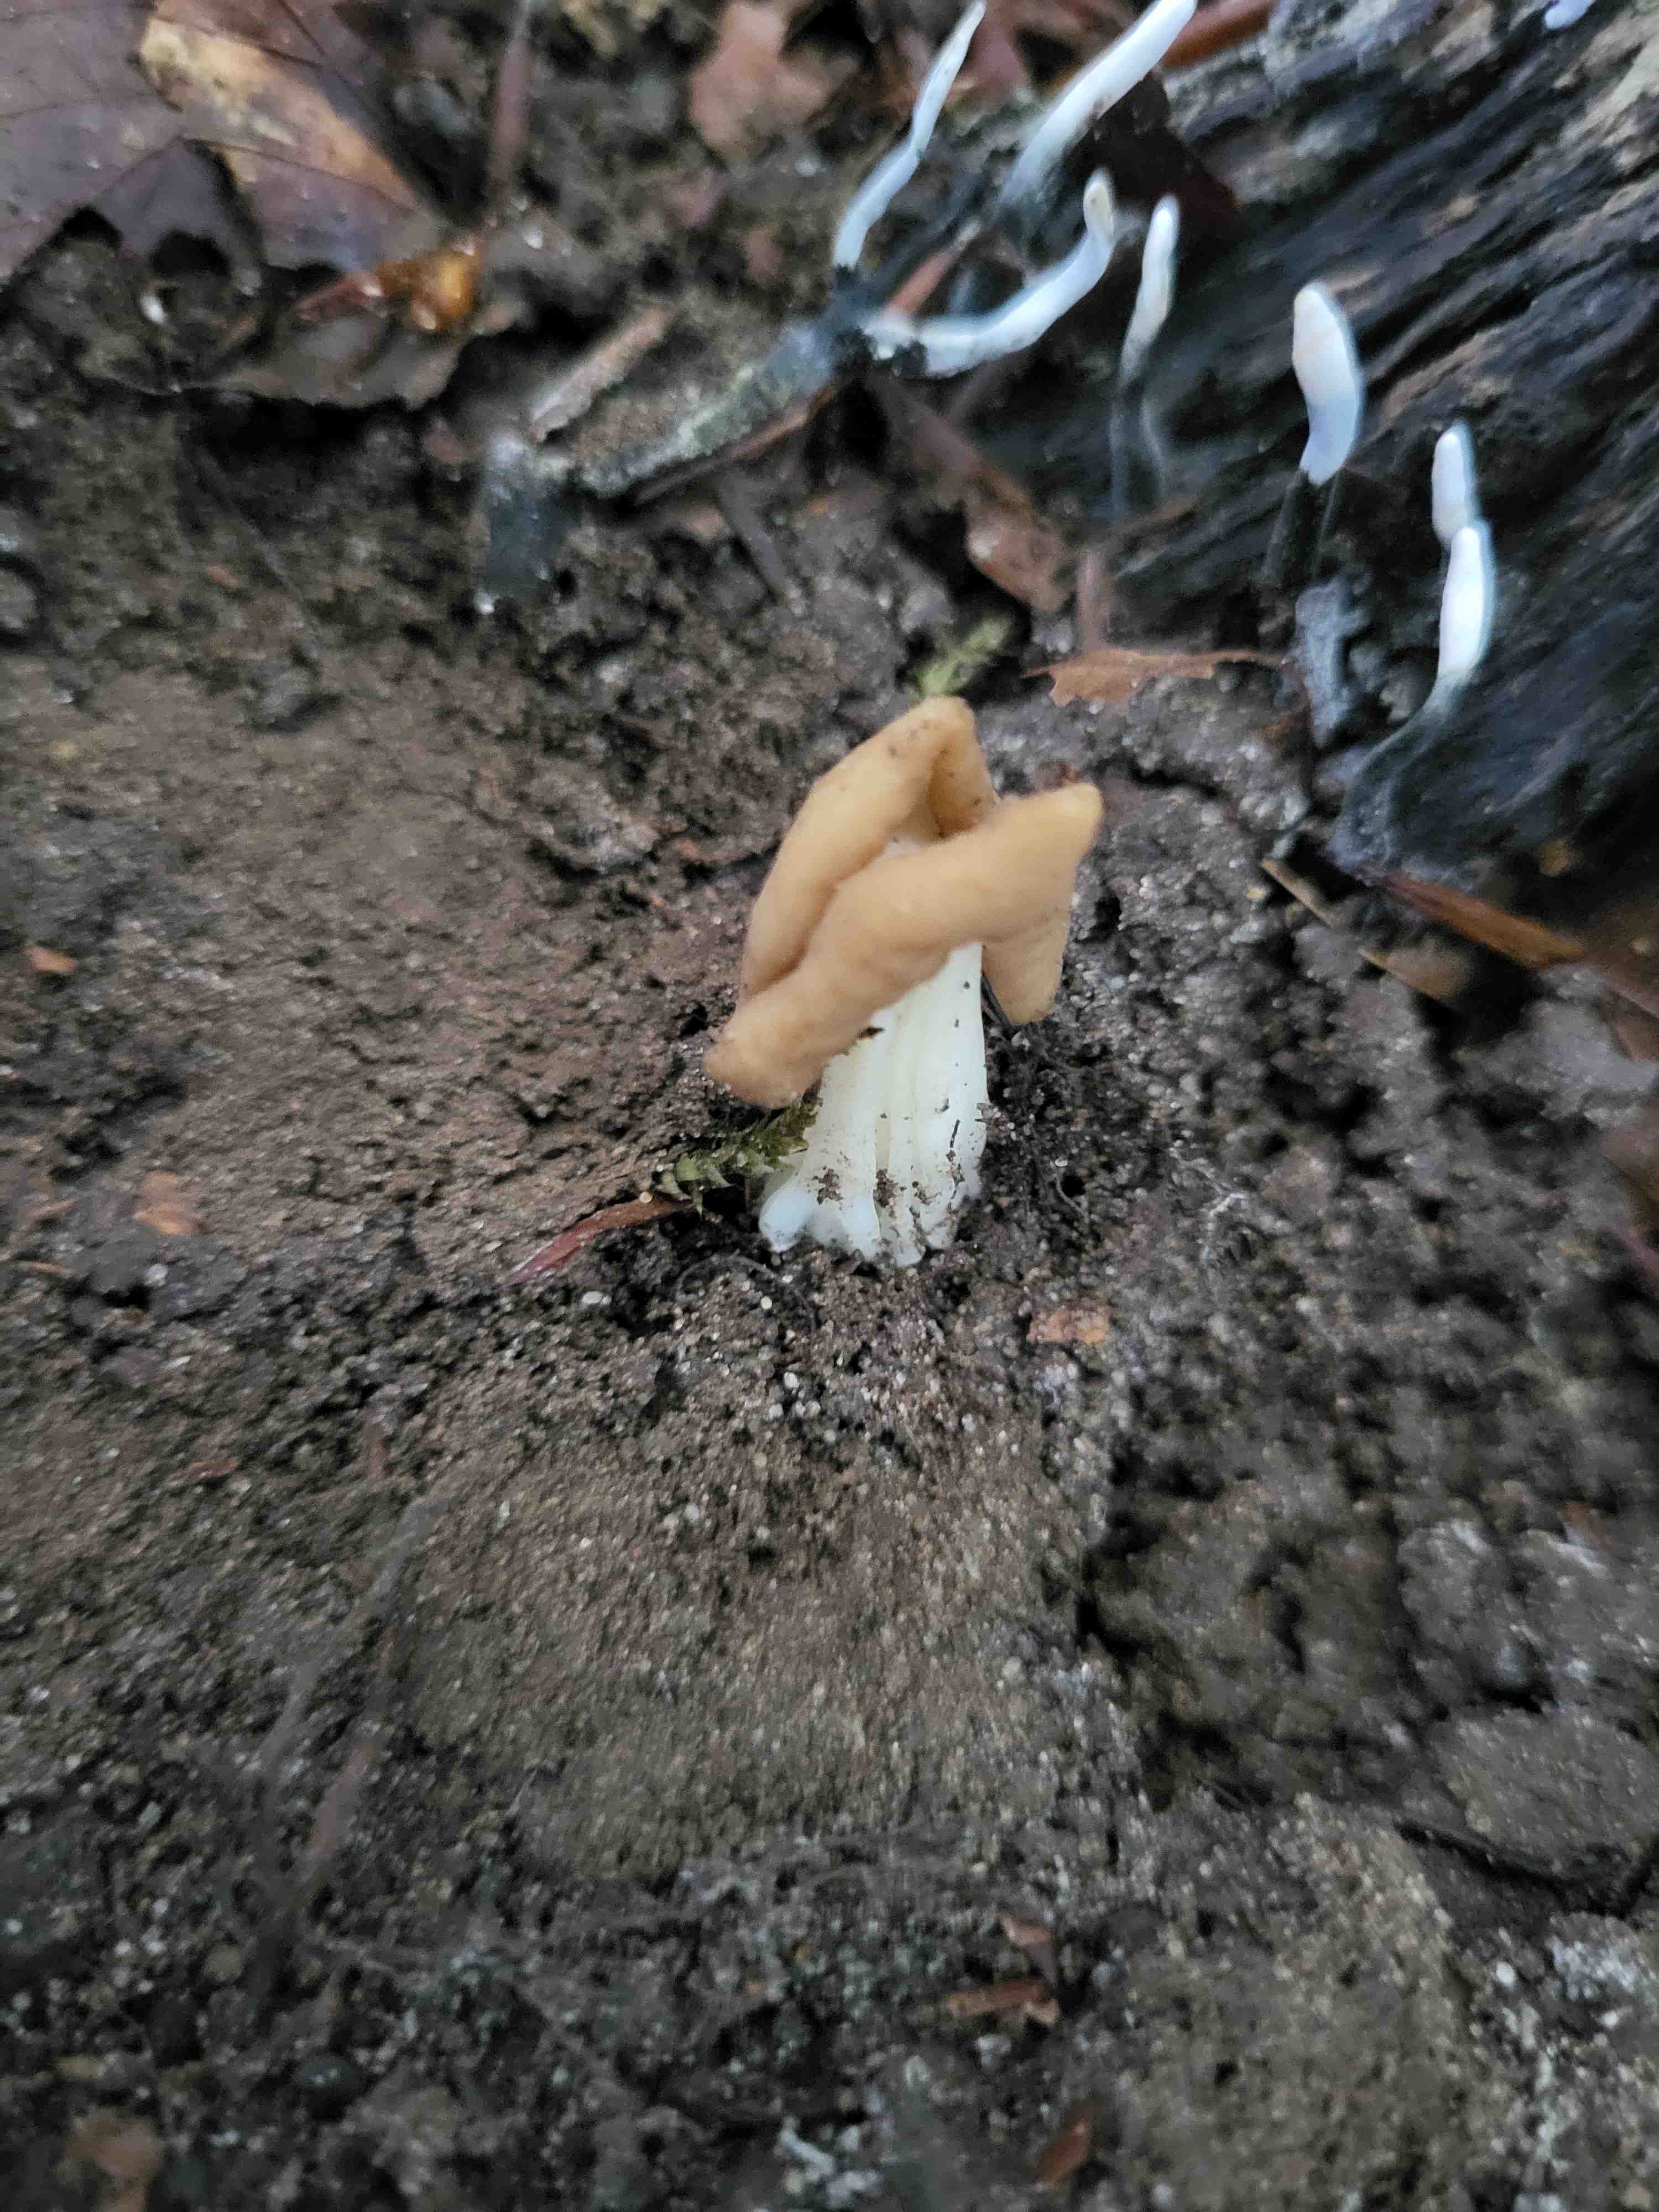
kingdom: Fungi
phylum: Ascomycota
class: Pezizomycetes
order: Pezizales
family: Helvellaceae
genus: Helvella
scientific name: Helvella
